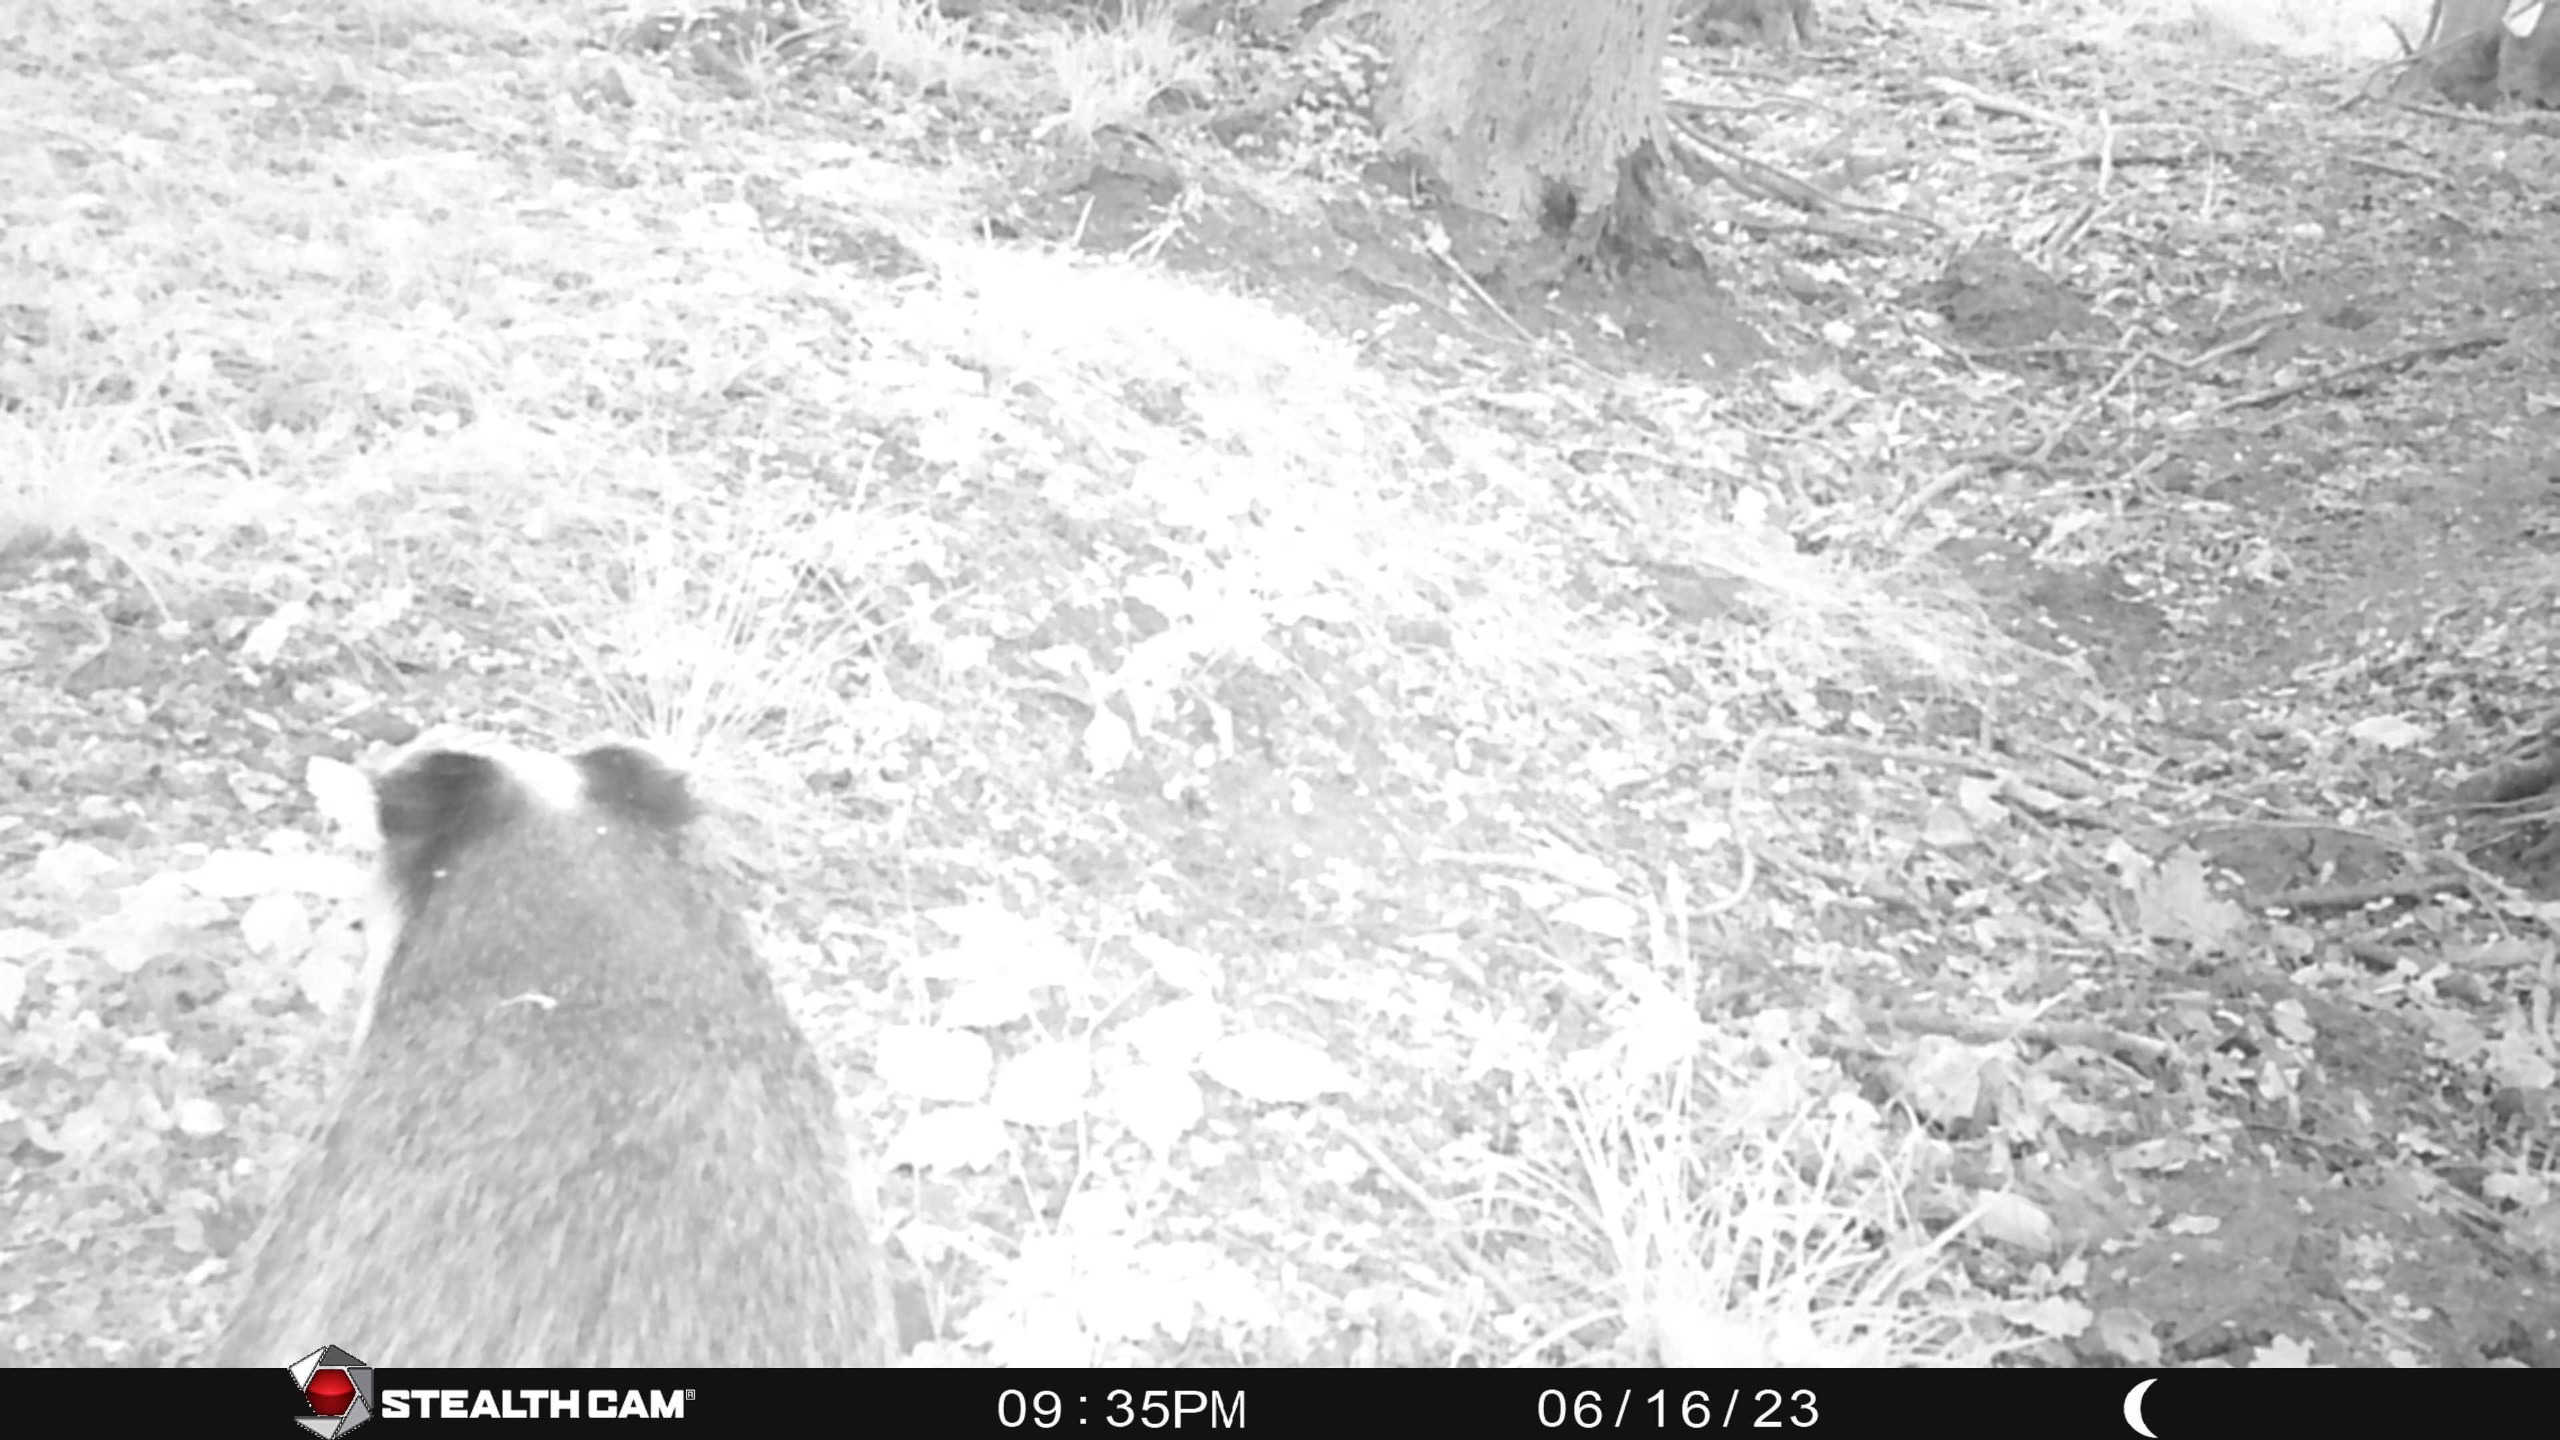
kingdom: Animalia
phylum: Chordata
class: Mammalia
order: Carnivora
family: Mustelidae
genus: Meles
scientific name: Meles meles
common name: Grævling
